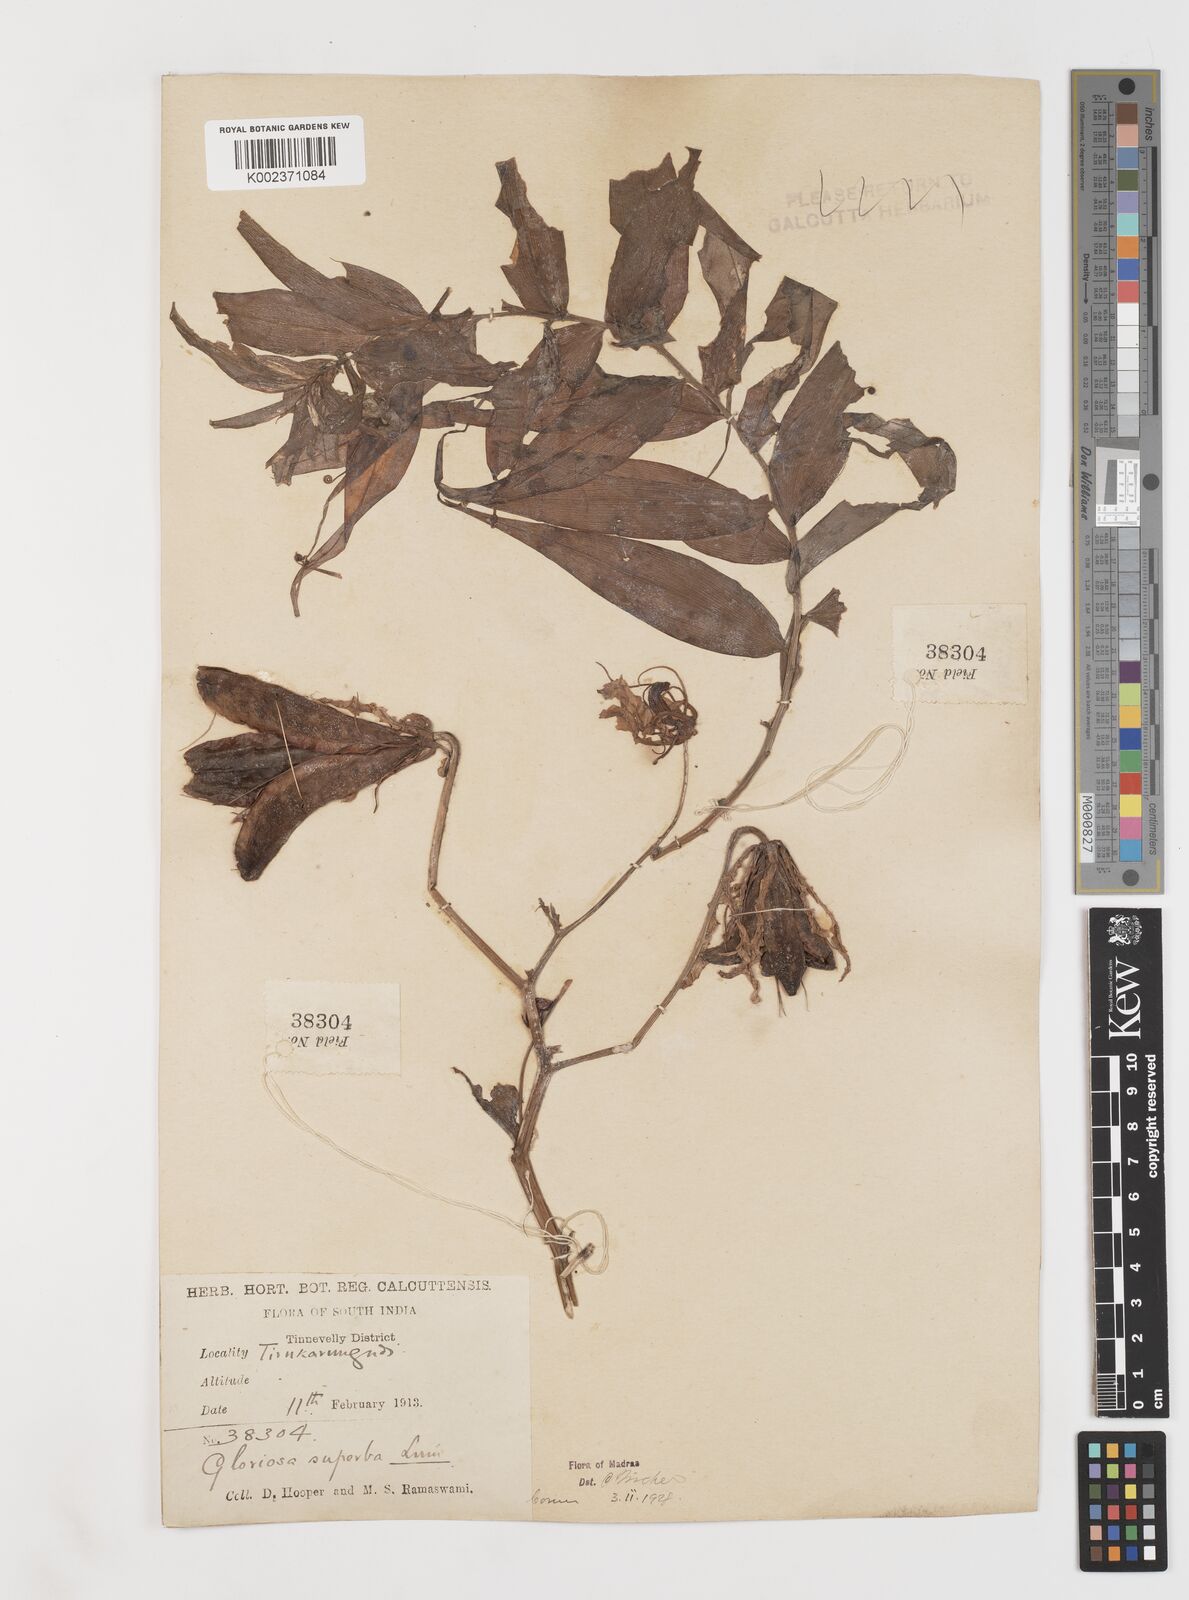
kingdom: Plantae
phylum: Tracheophyta
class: Liliopsida
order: Liliales
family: Colchicaceae
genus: Gloriosa
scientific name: Gloriosa superba
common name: Flame lily
